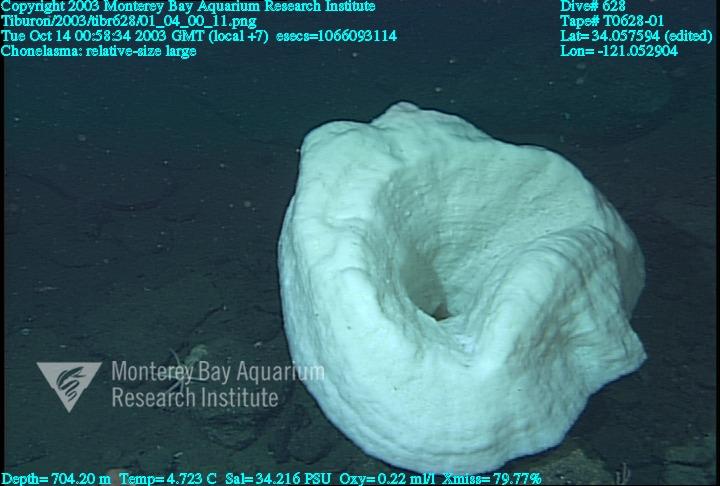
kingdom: Animalia
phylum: Porifera
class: Hexactinellida
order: Sceptrulophora
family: Euretidae
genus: Chonelasma
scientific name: Chonelasma
